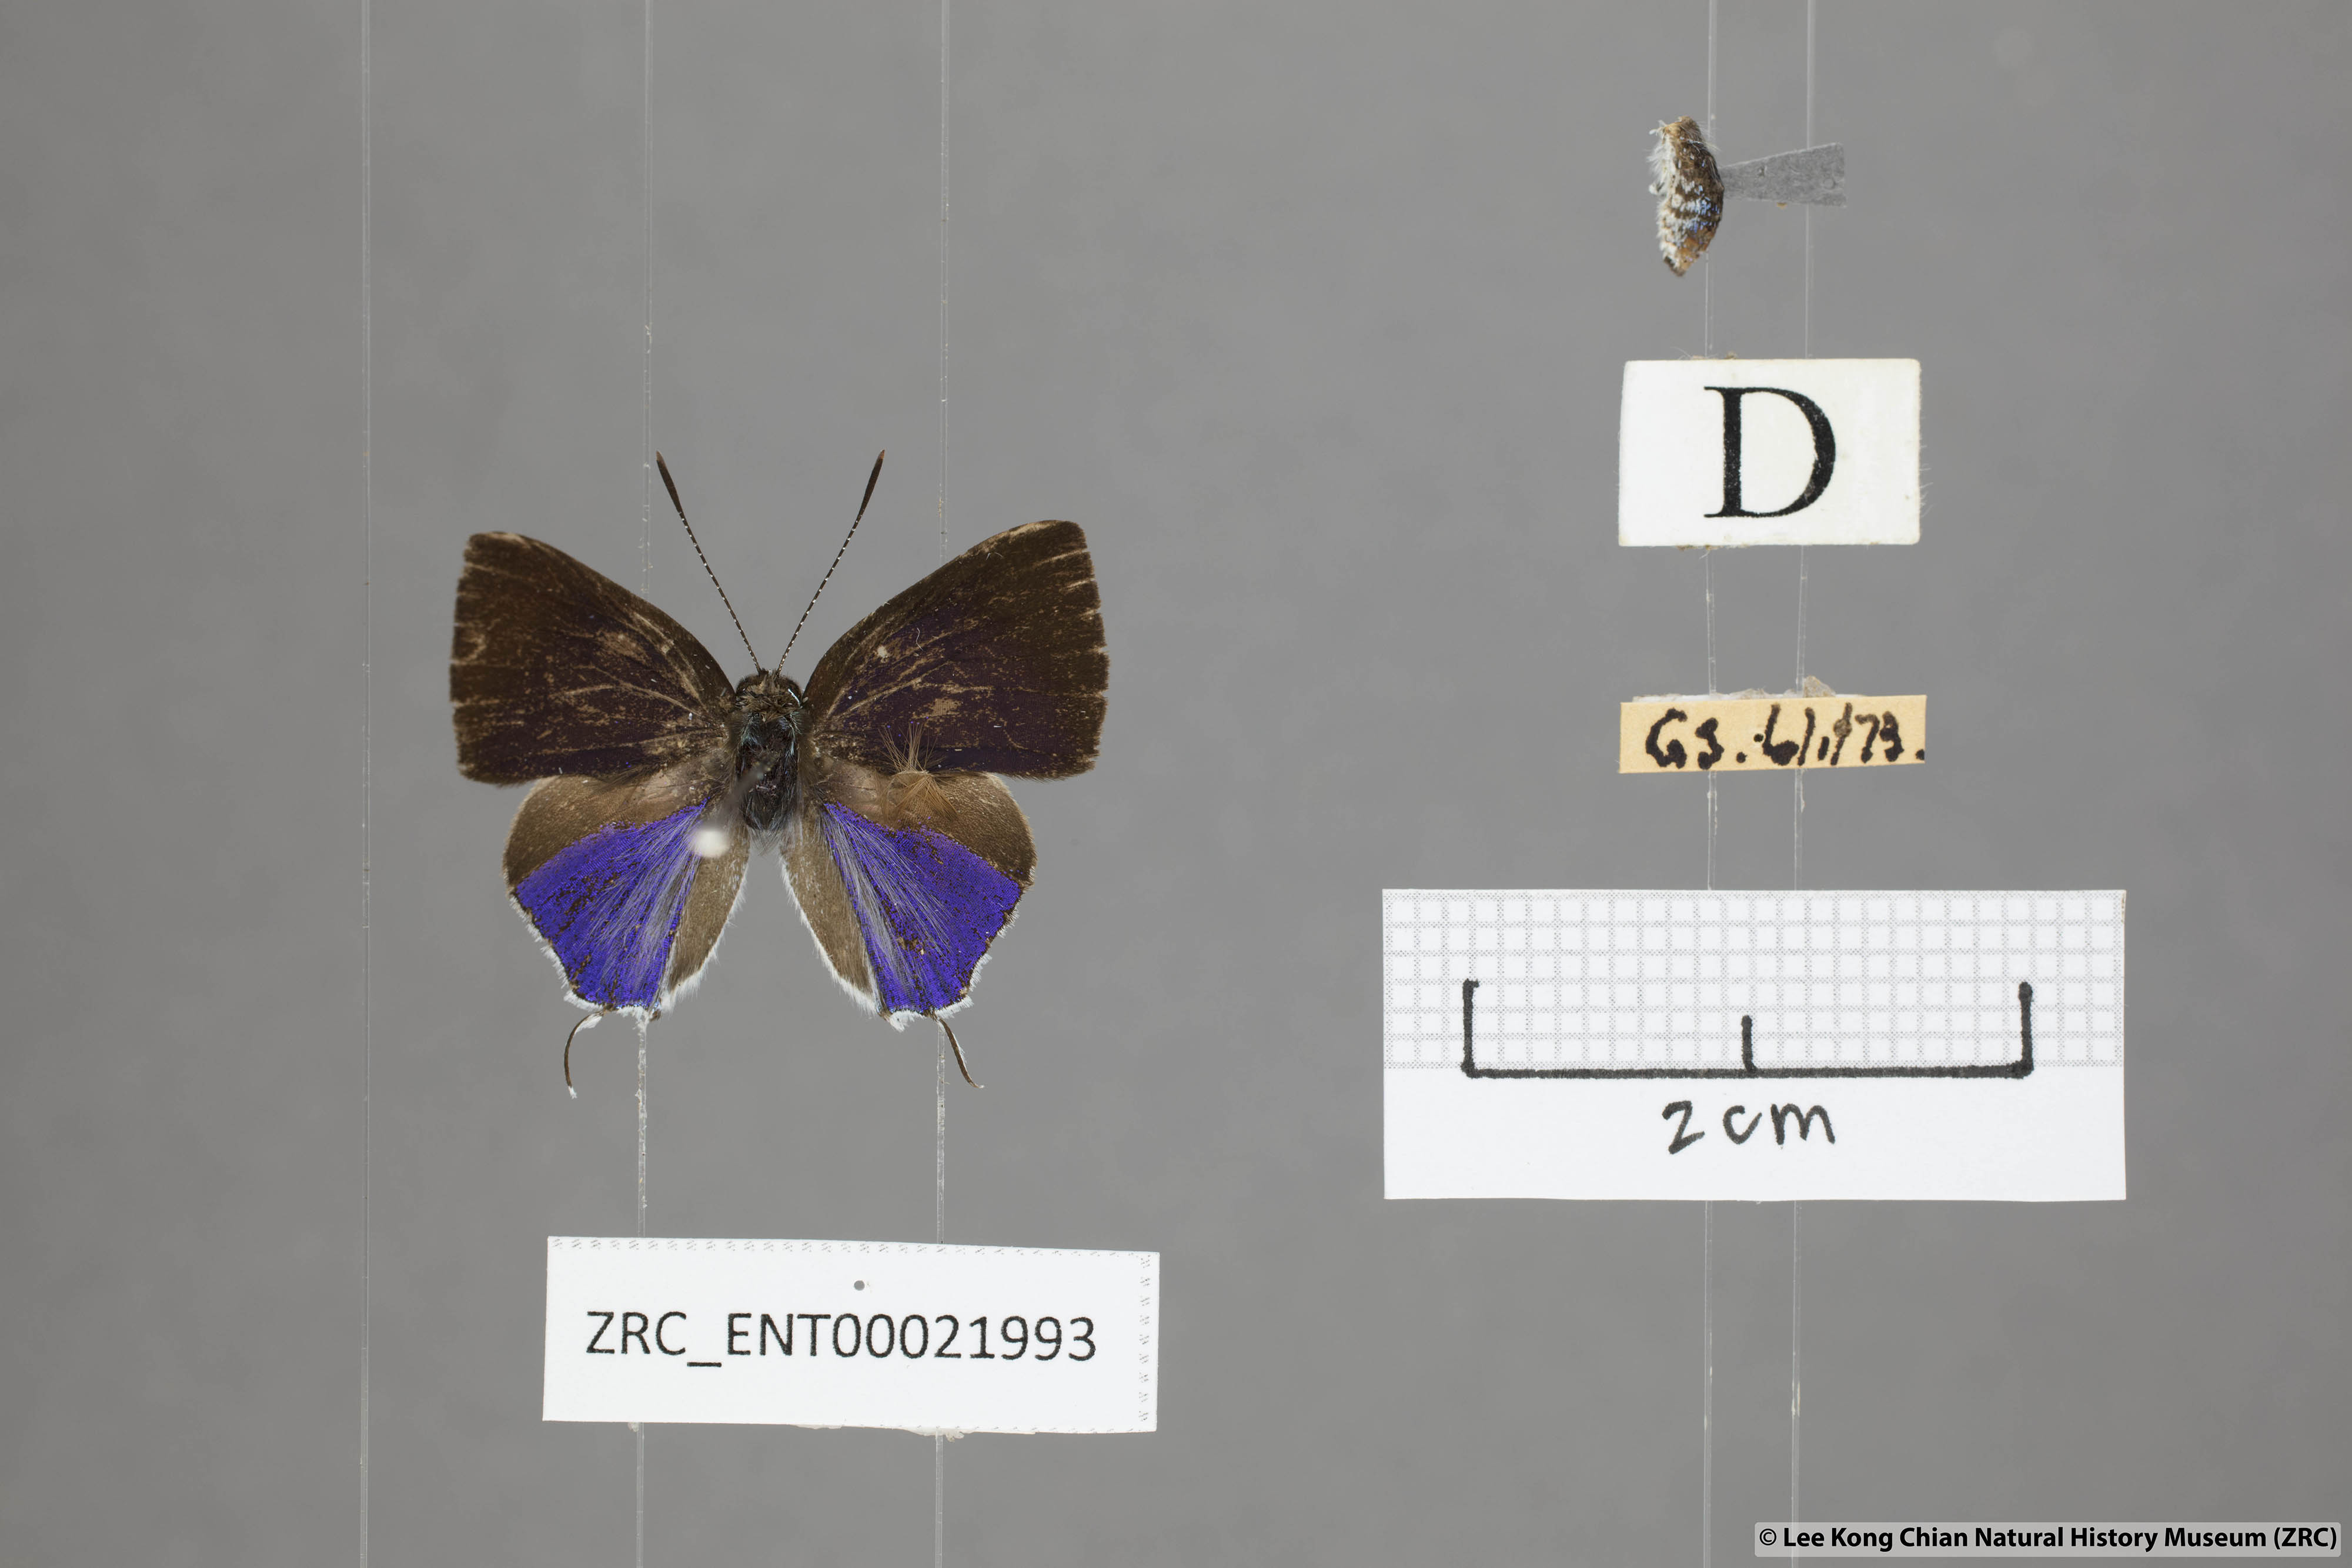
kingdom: Animalia
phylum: Arthropoda
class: Insecta
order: Lepidoptera
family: Lycaenidae
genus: Sinthusa
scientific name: Sinthusa malika
